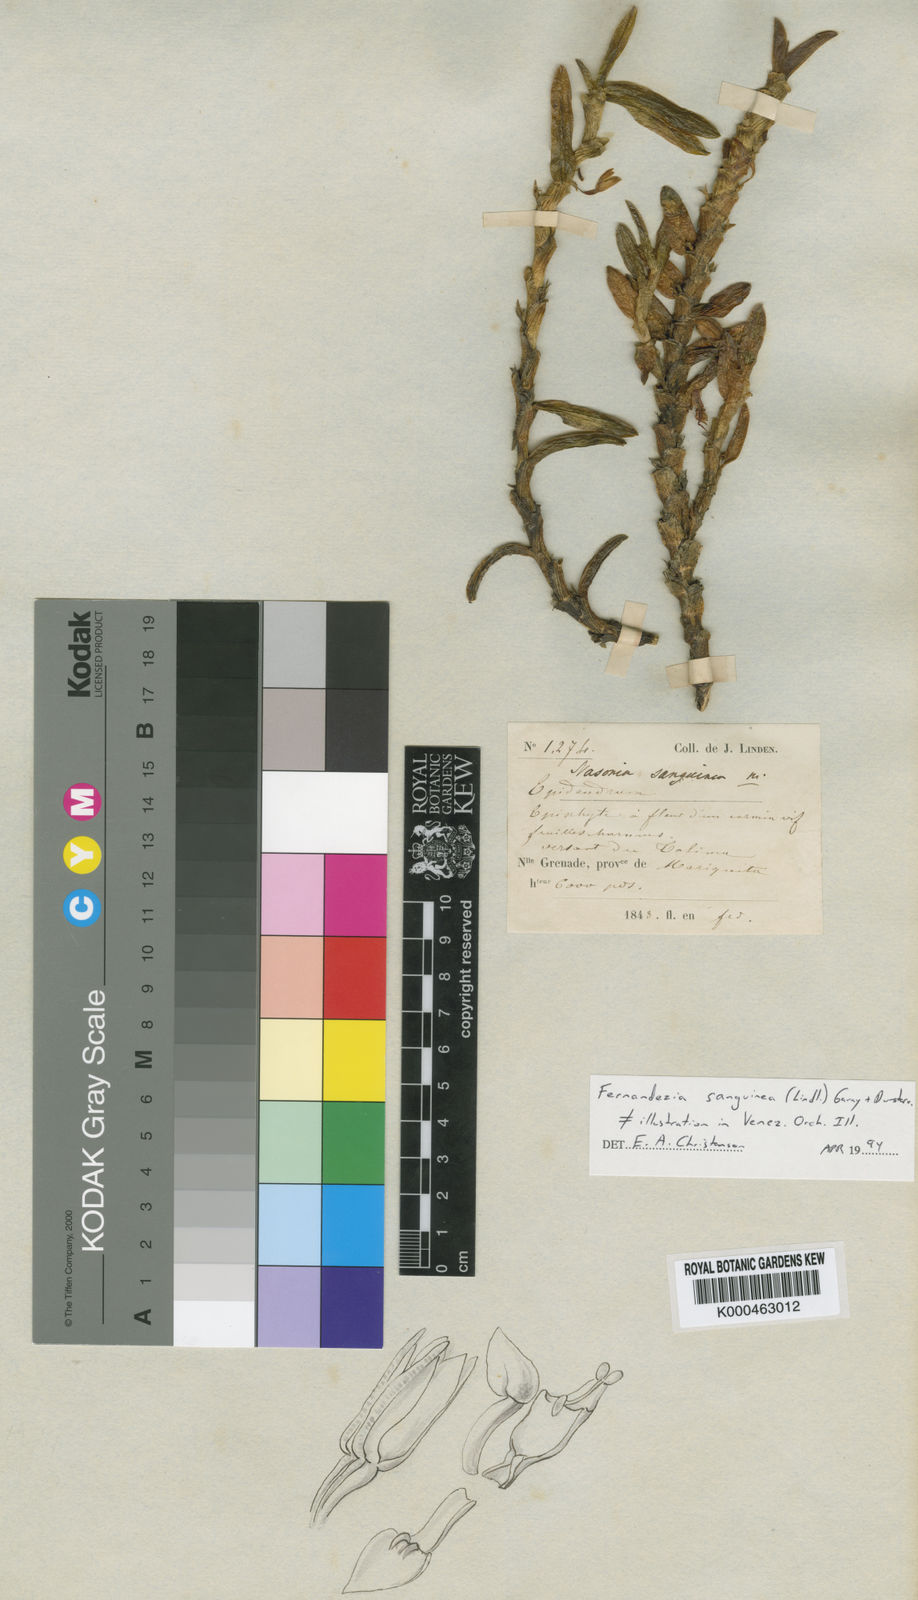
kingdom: Plantae
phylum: Tracheophyta
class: Liliopsida
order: Asparagales
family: Orchidaceae
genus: Fernandezia
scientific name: Fernandezia sanguinea
